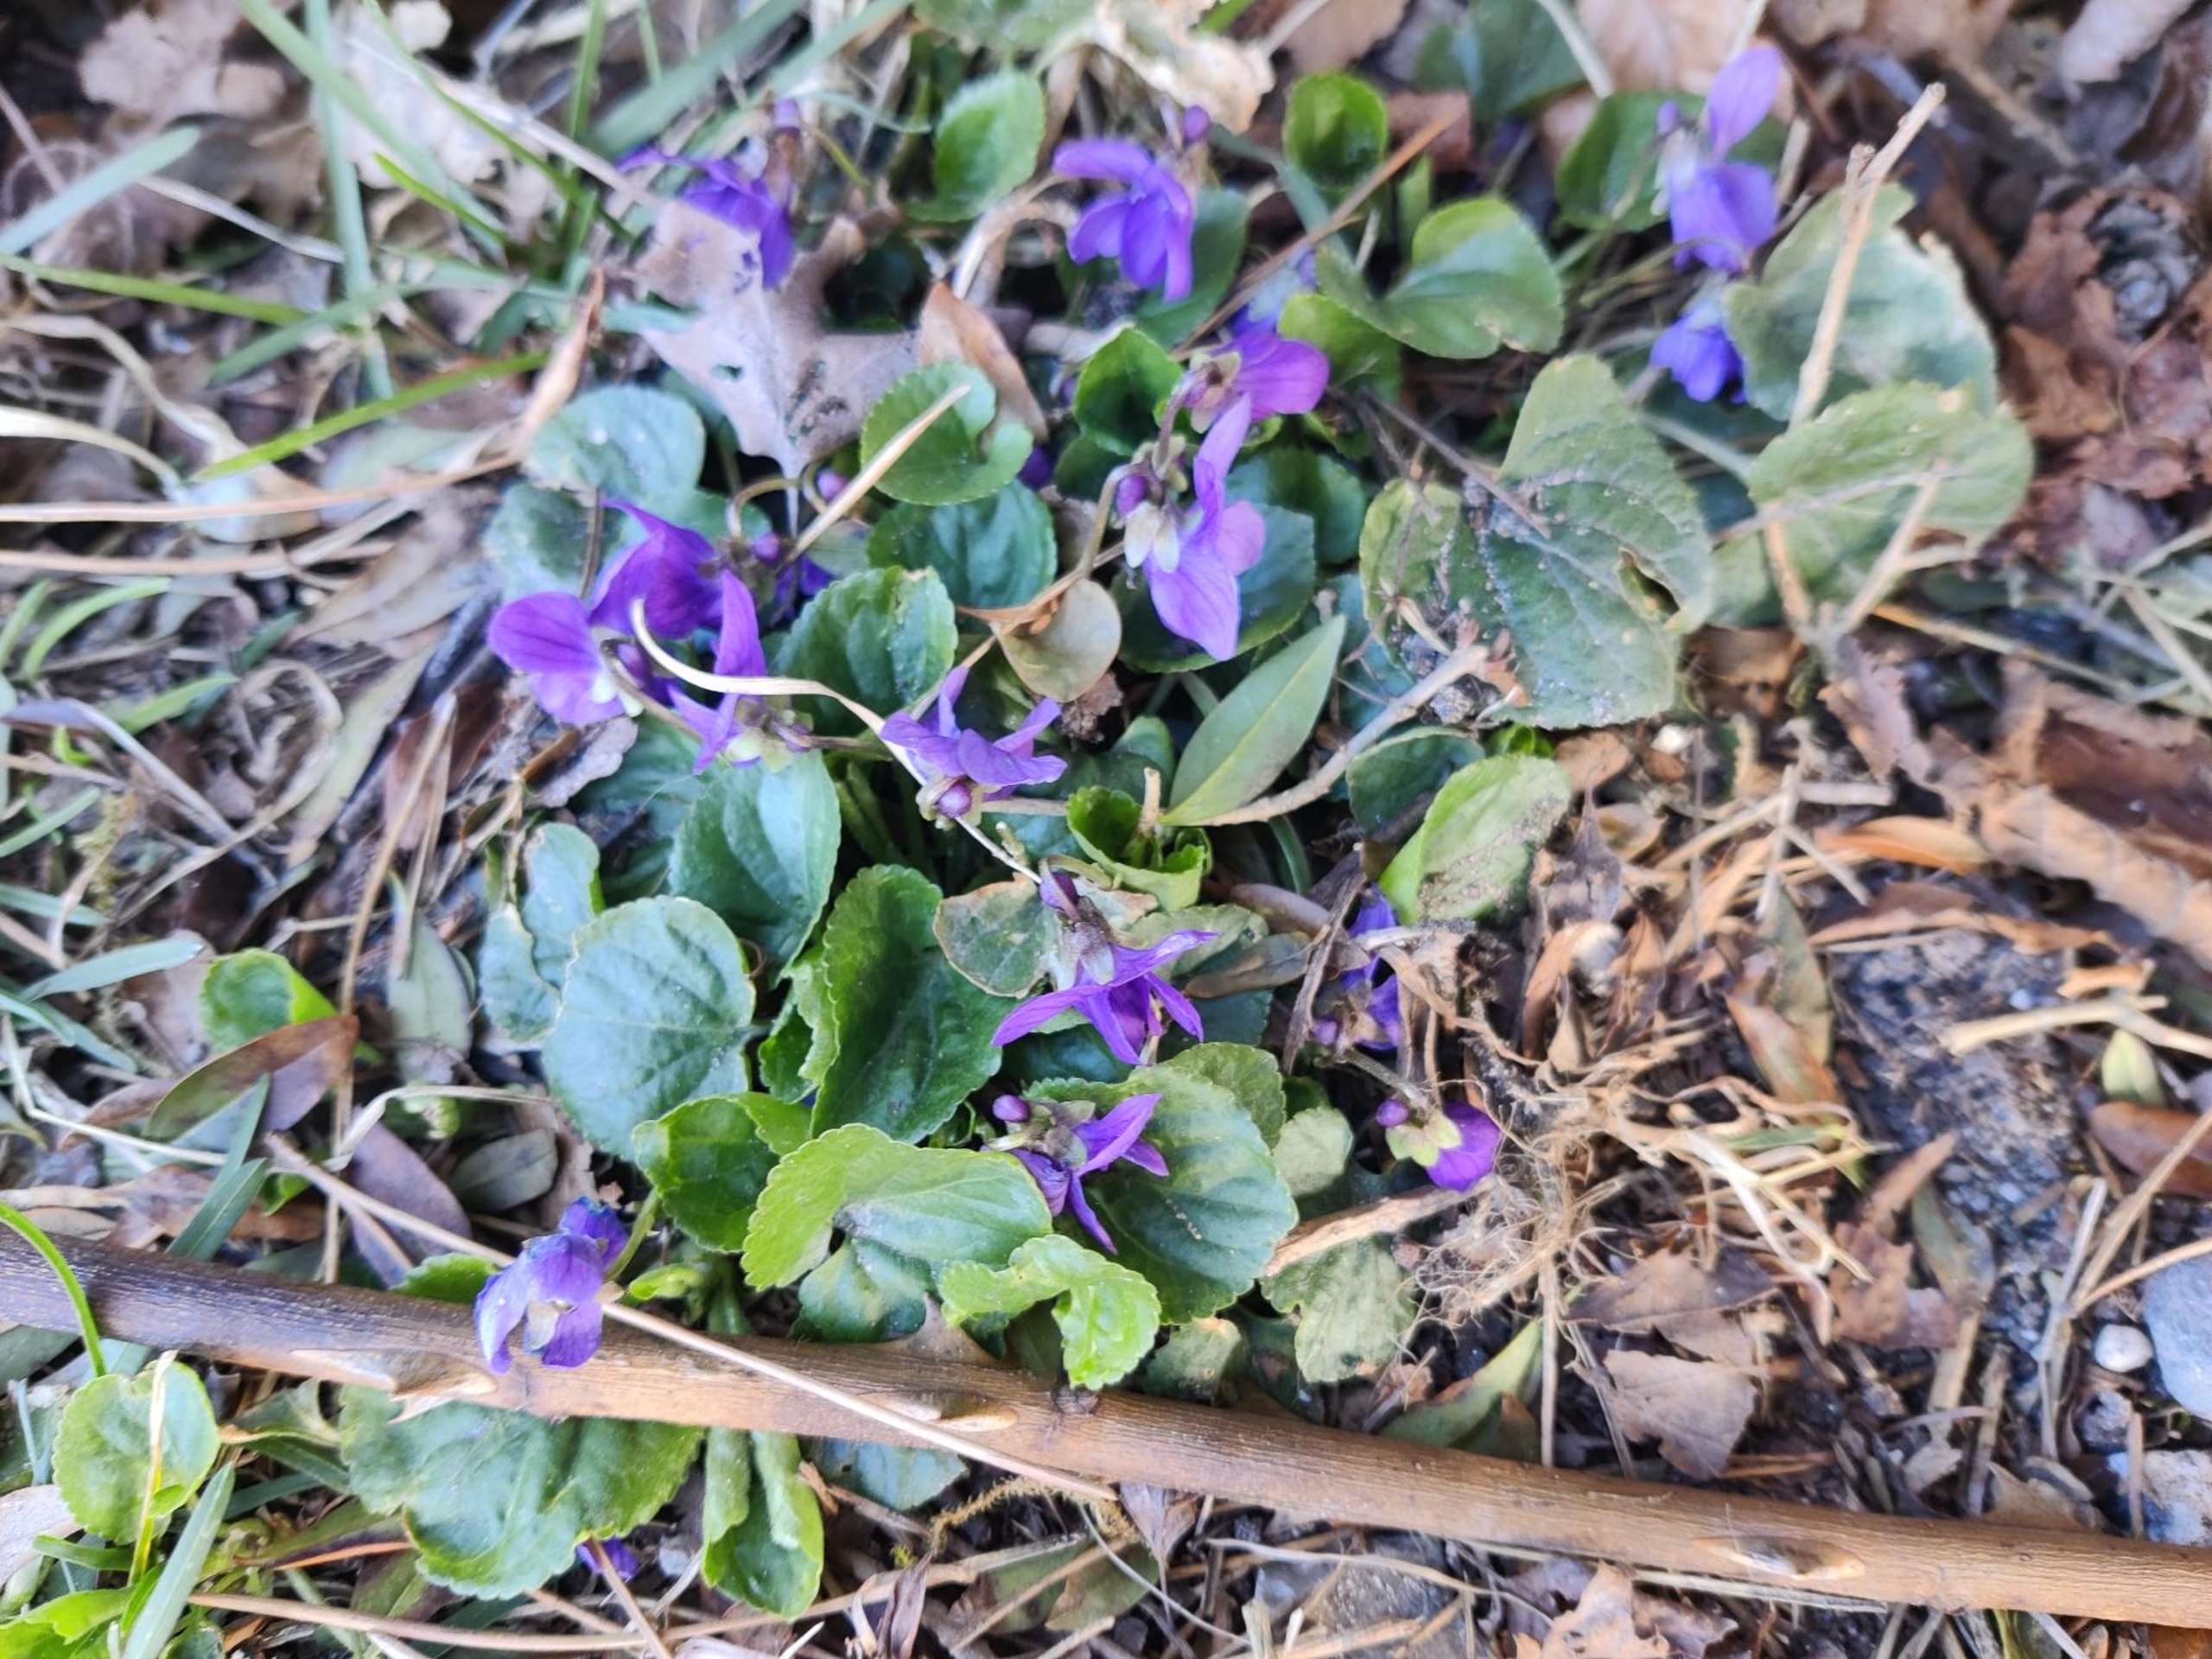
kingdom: Plantae
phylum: Tracheophyta
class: Magnoliopsida
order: Malpighiales
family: Violaceae
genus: Viola
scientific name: Viola odorata
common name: Marts-viol
